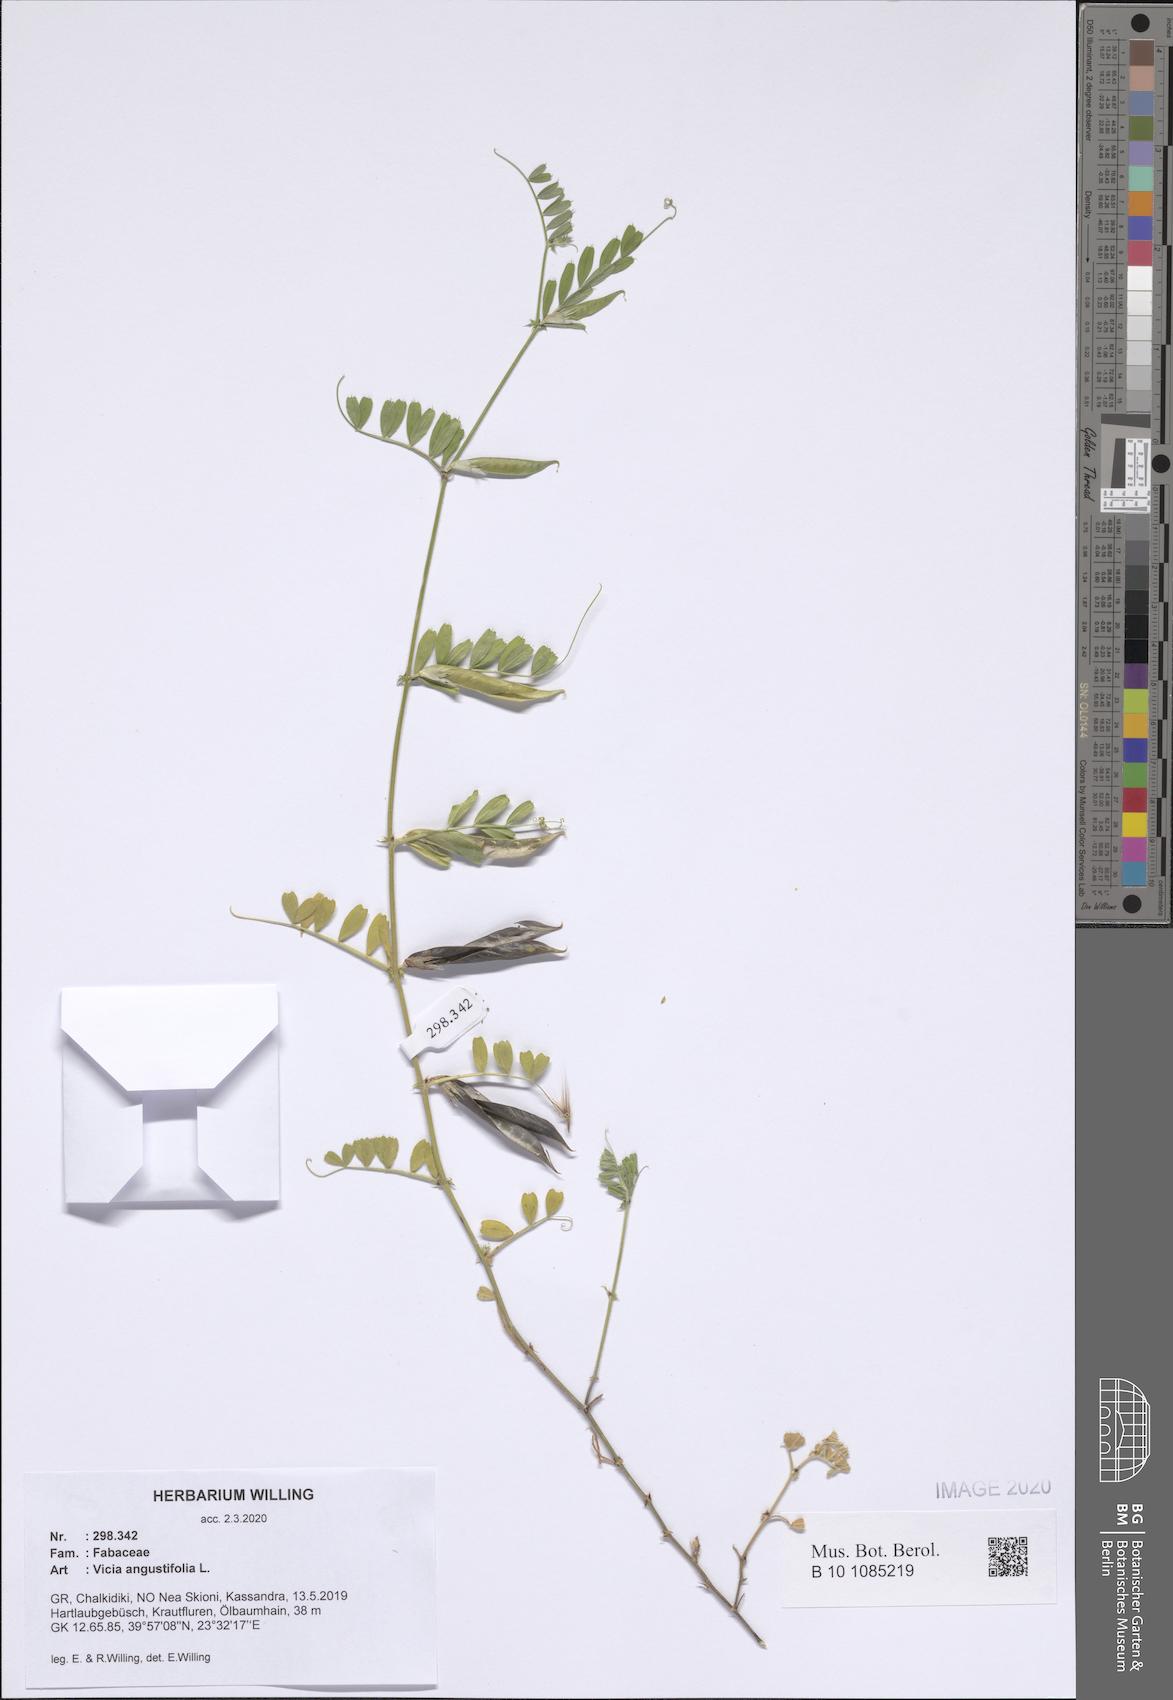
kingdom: Plantae
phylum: Tracheophyta
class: Magnoliopsida
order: Fabales
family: Fabaceae
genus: Vicia
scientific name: Vicia sativa
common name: Garden vetch
